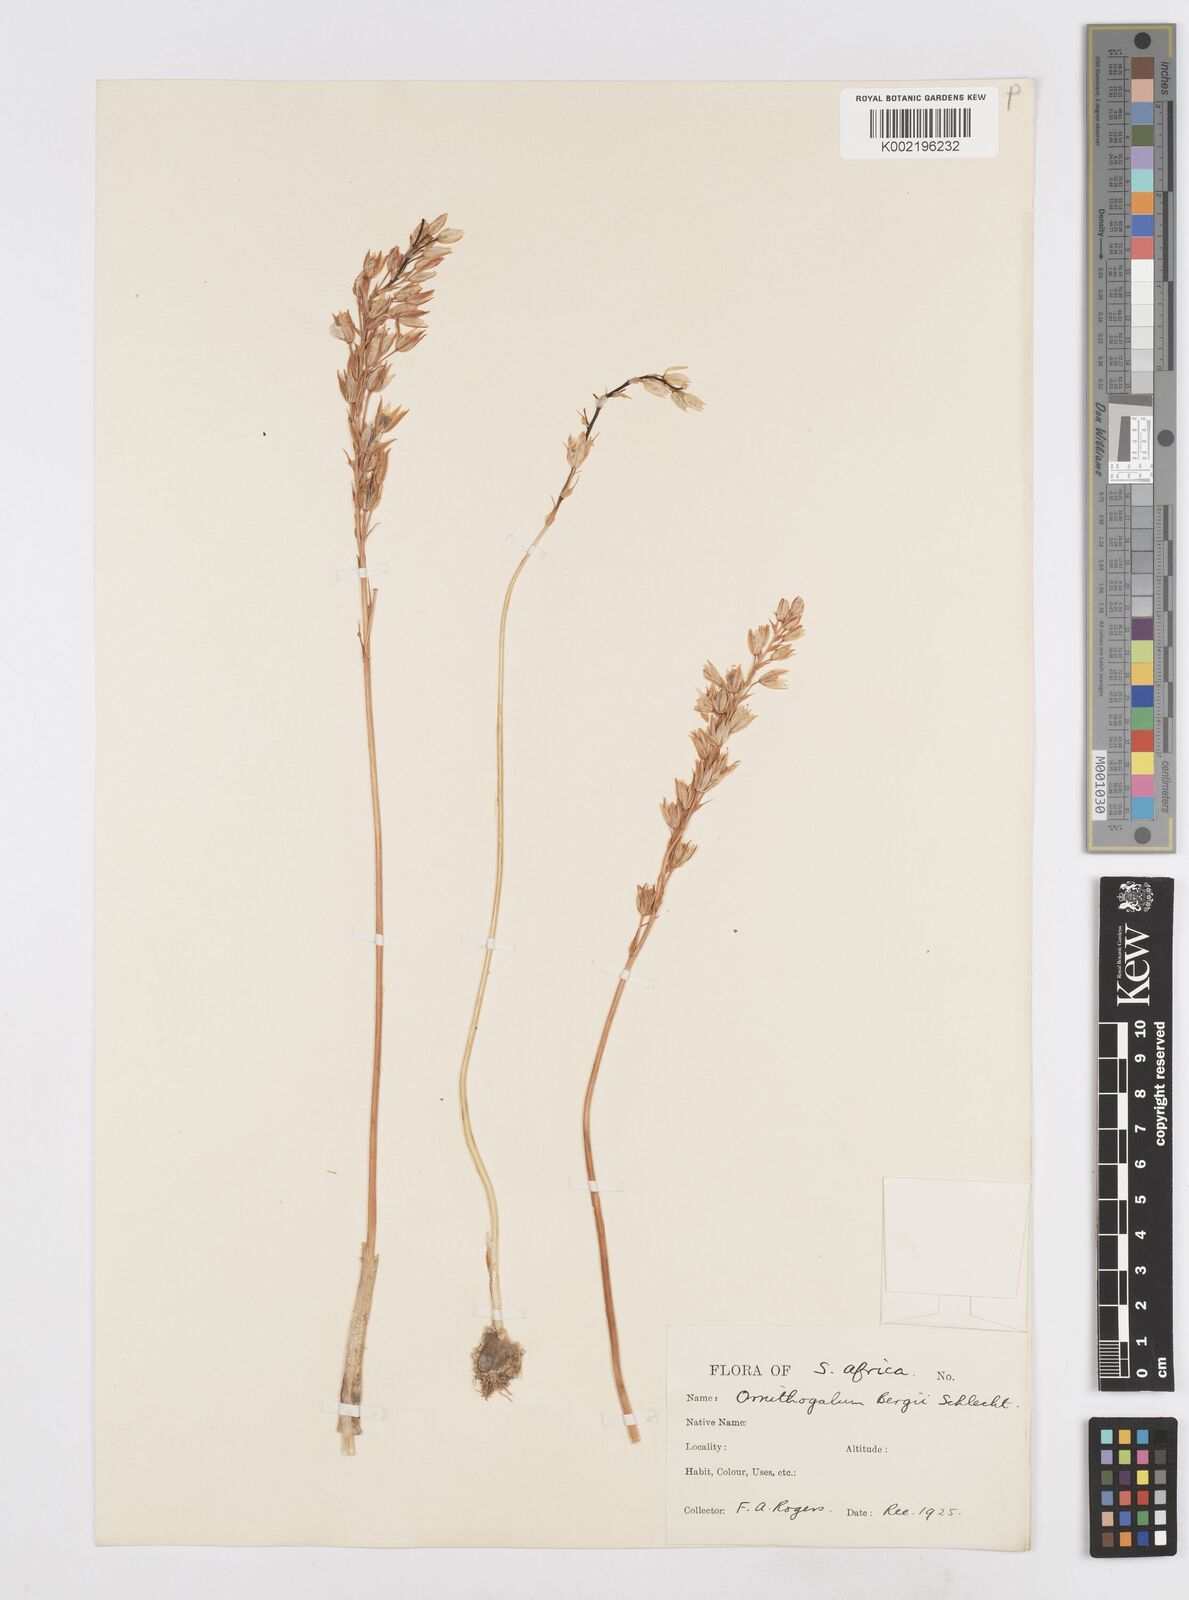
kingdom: Plantae
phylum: Tracheophyta
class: Liliopsida
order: Asparagales
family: Asparagaceae
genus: Ornithogalum
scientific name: Ornithogalum hispidum
